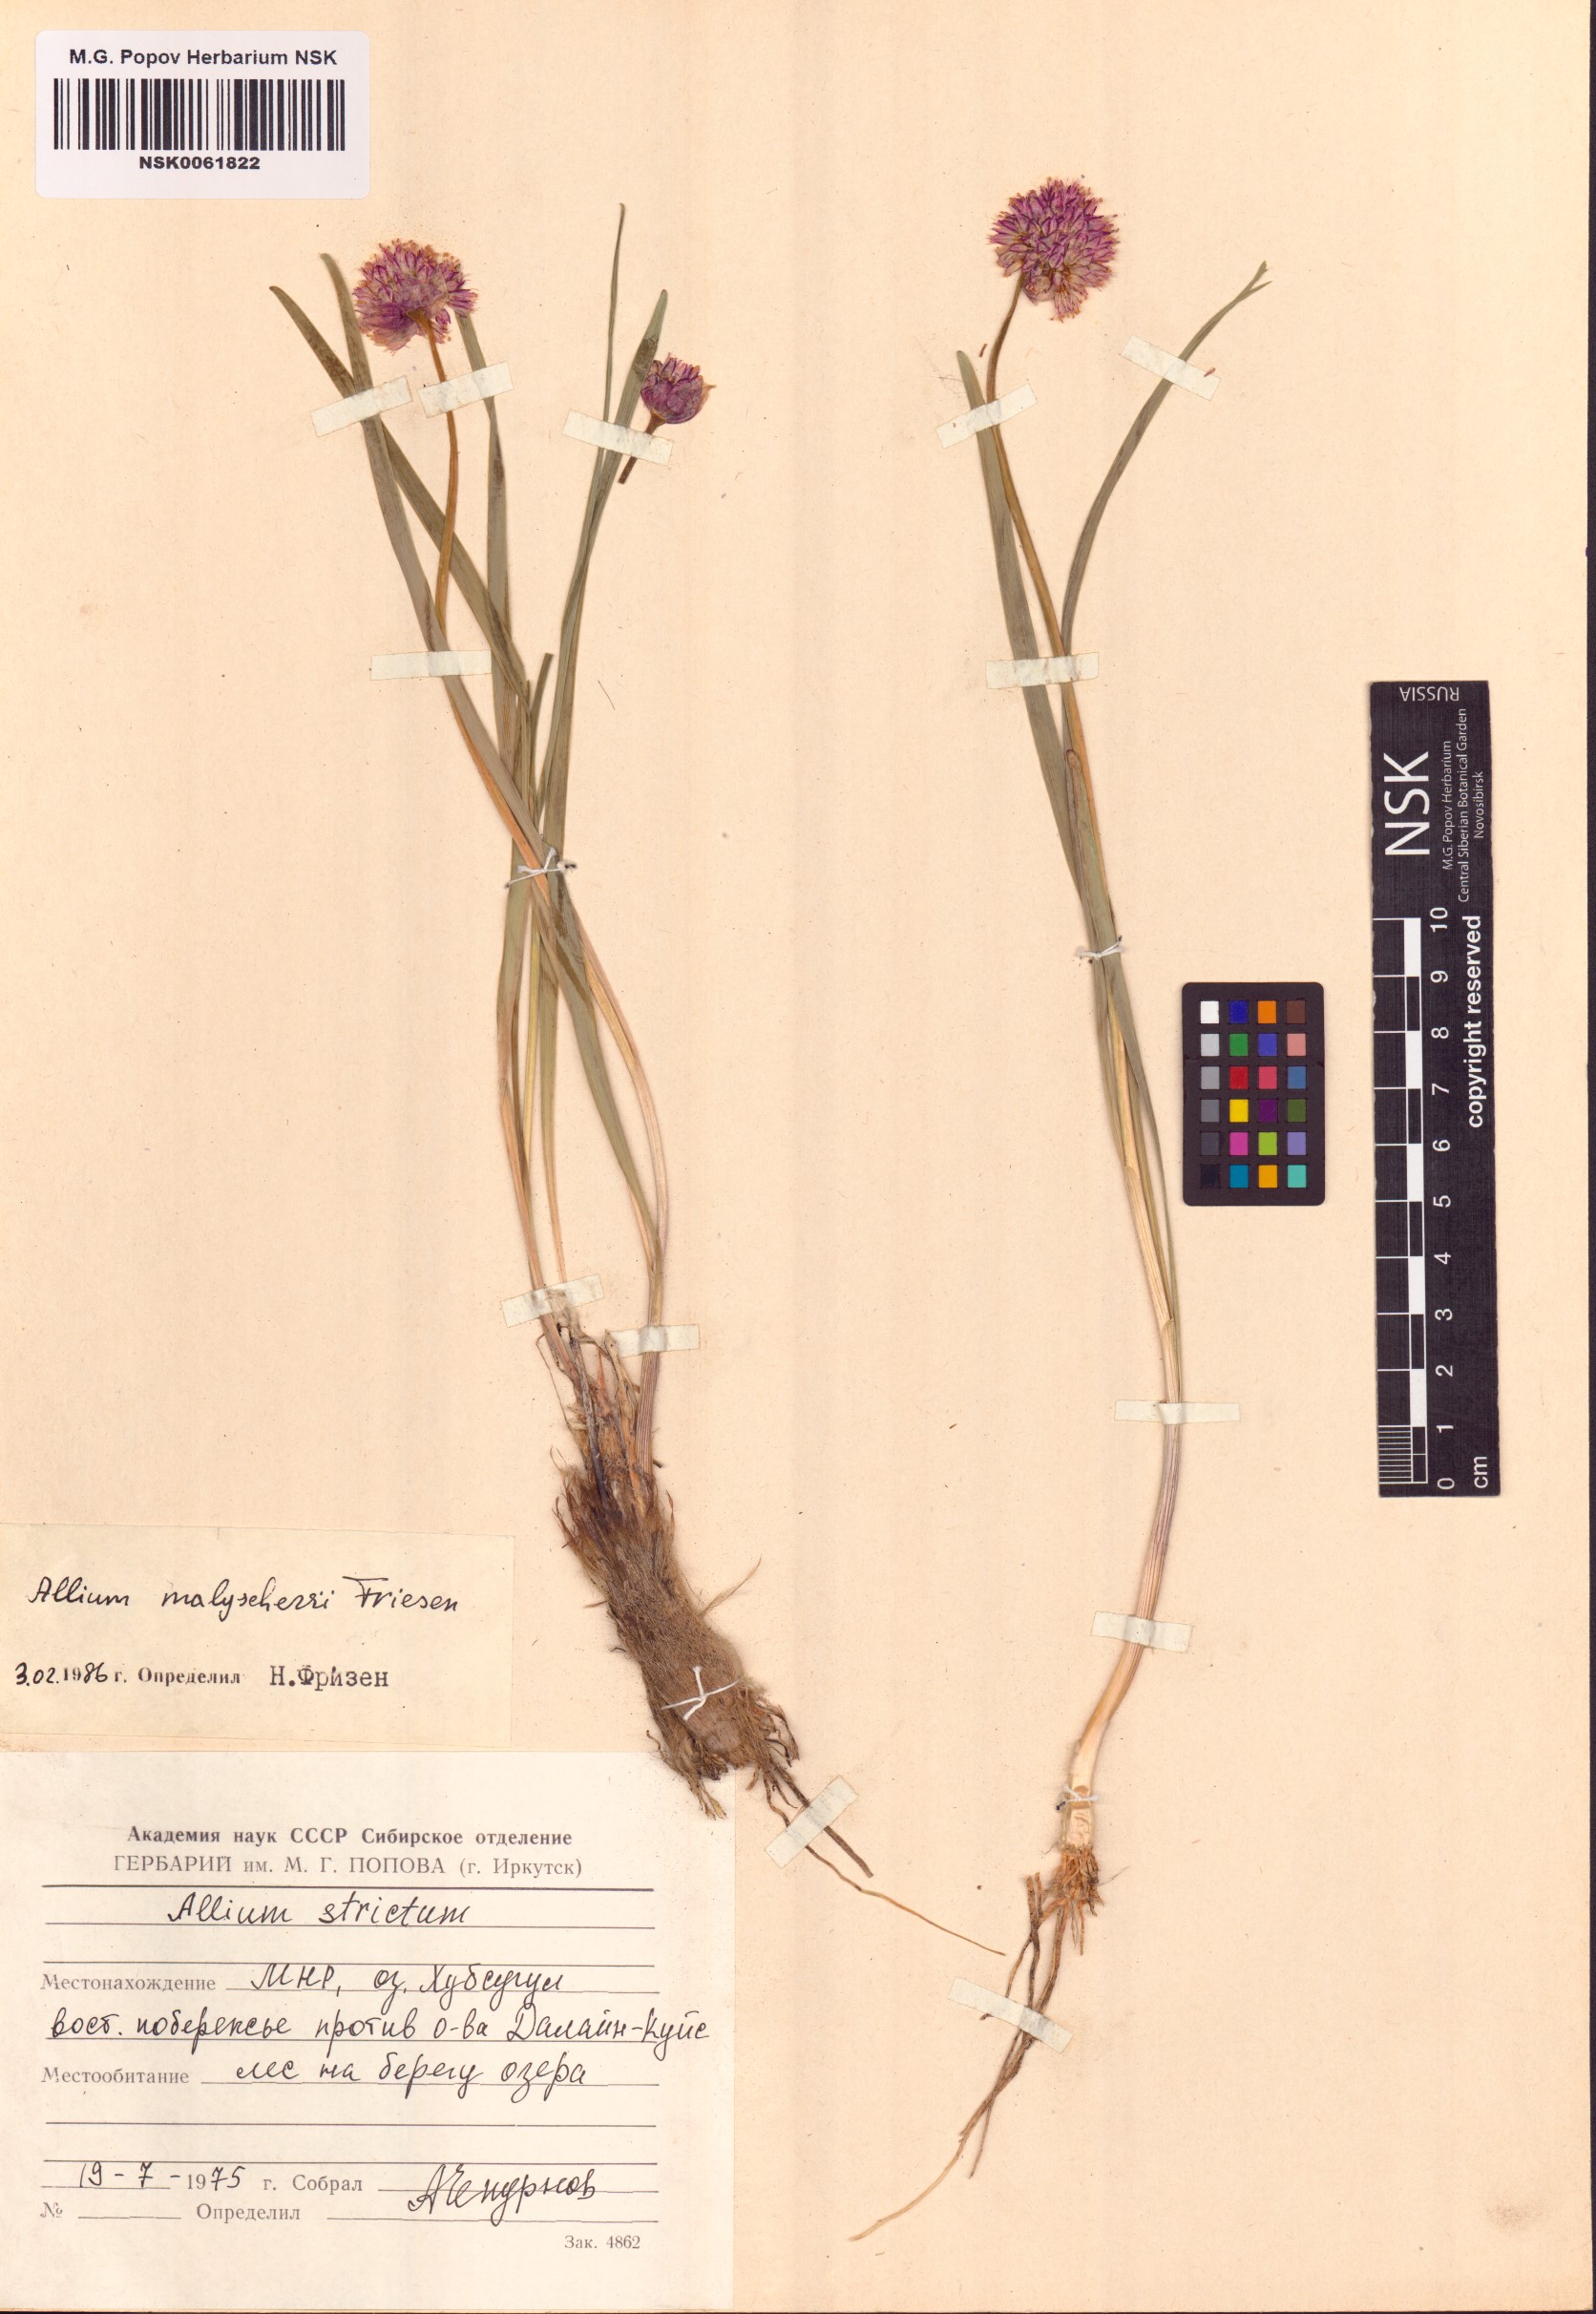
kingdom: Plantae
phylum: Tracheophyta
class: Liliopsida
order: Asparagales
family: Amaryllidaceae
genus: Allium
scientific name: Allium malyschevii
